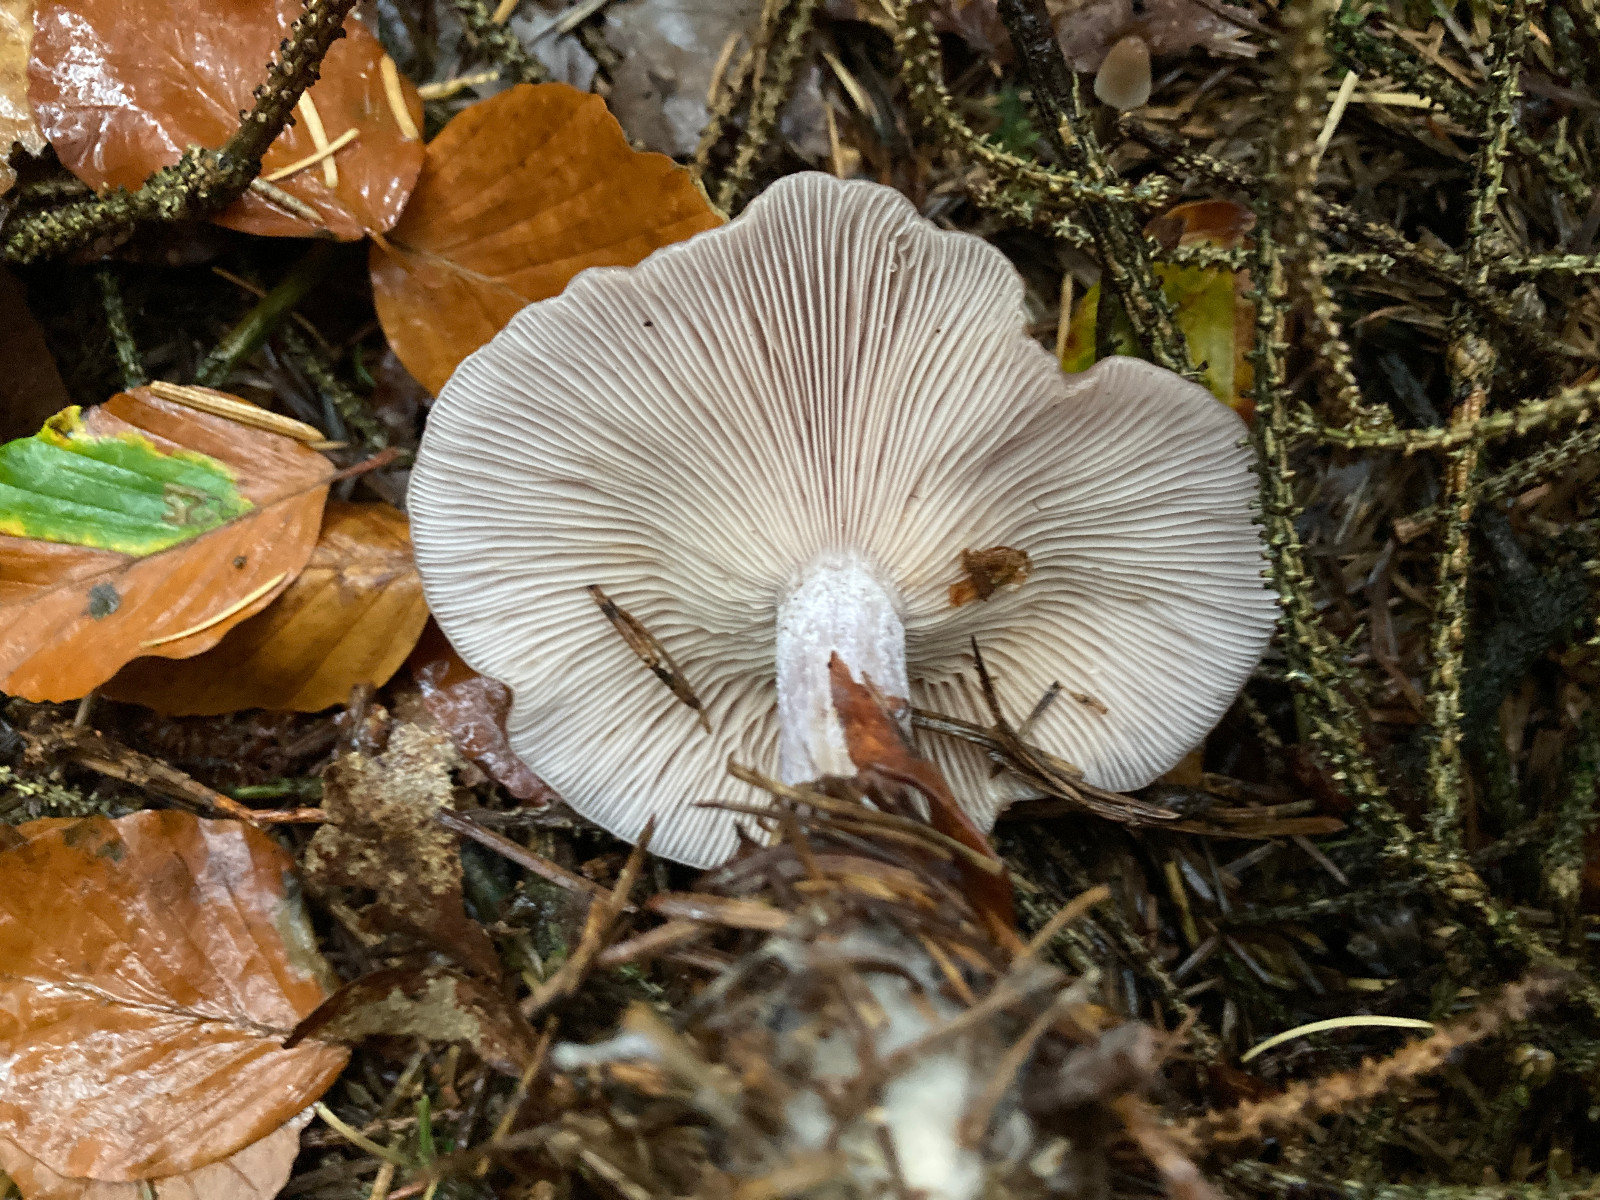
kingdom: Fungi
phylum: Basidiomycota
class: Agaricomycetes
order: Agaricales
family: Tricholomataceae
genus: Lepista
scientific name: Lepista
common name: hekseringshat
